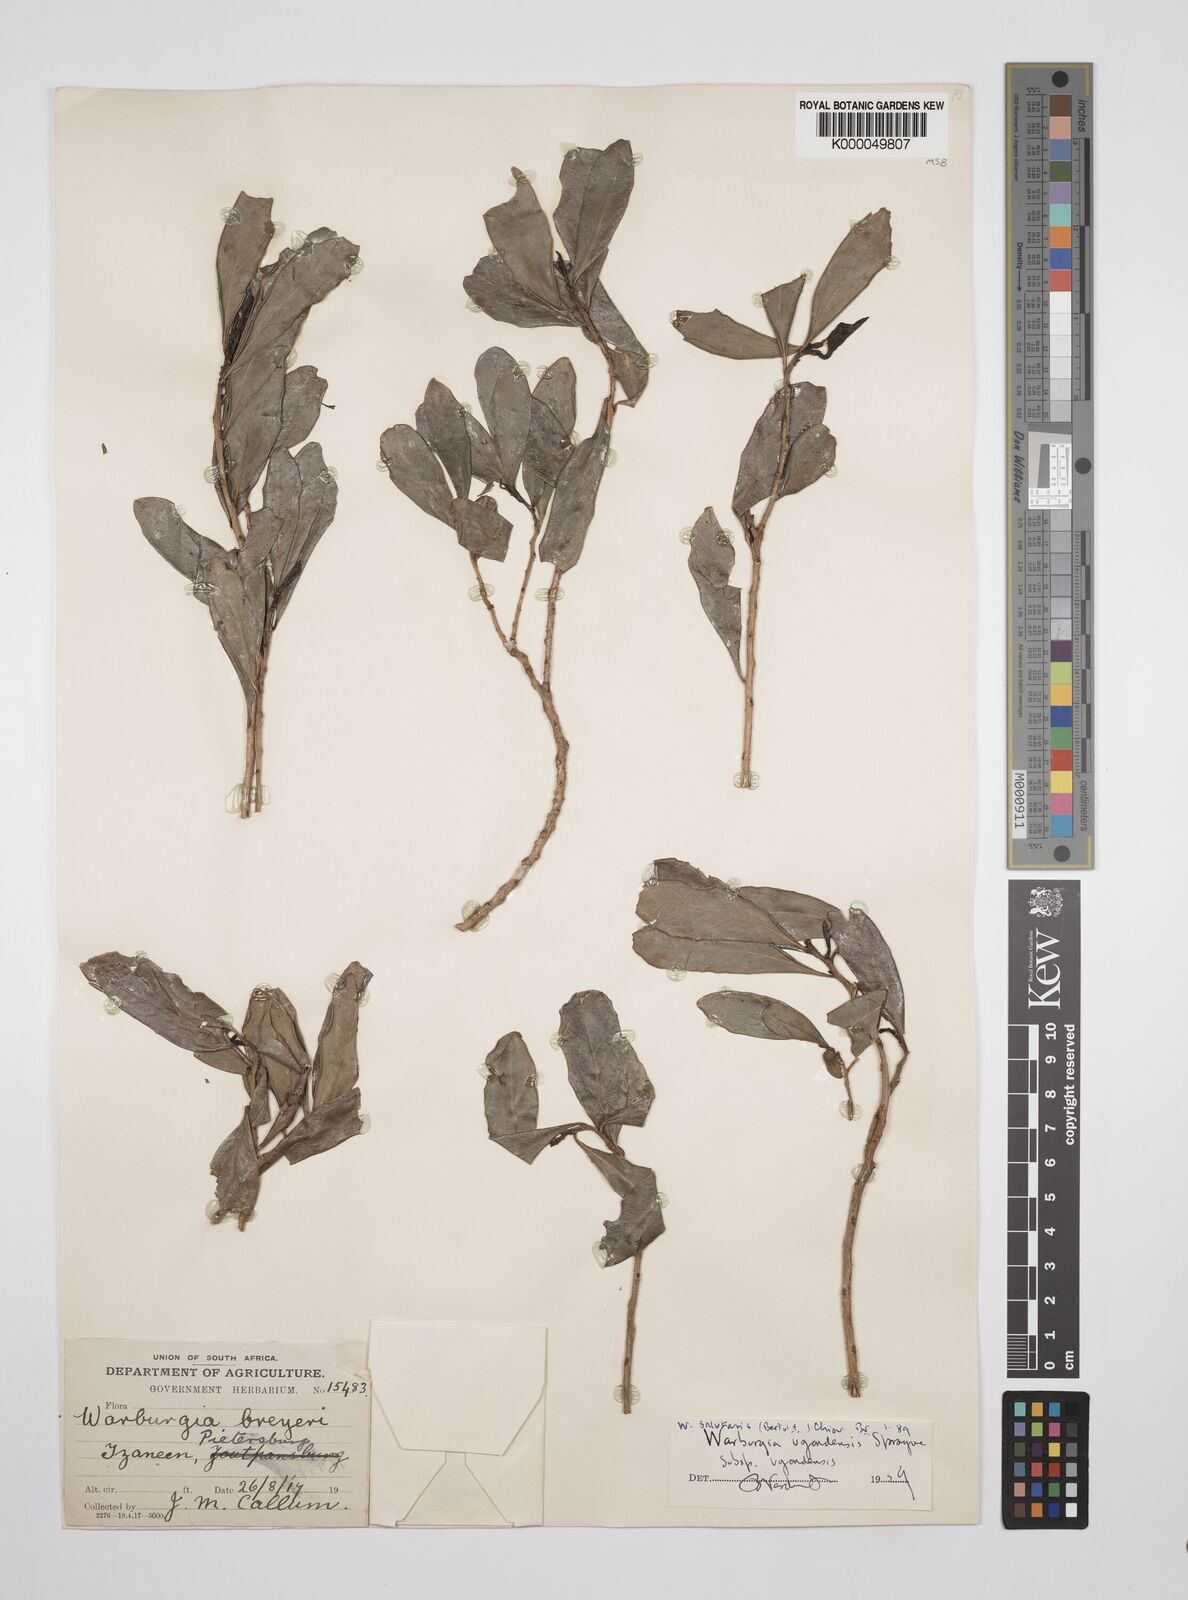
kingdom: Plantae
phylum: Tracheophyta
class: Magnoliopsida
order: Canellales
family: Canellaceae
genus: Warburgia
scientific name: Warburgia salutaris
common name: Pepper bark tree
